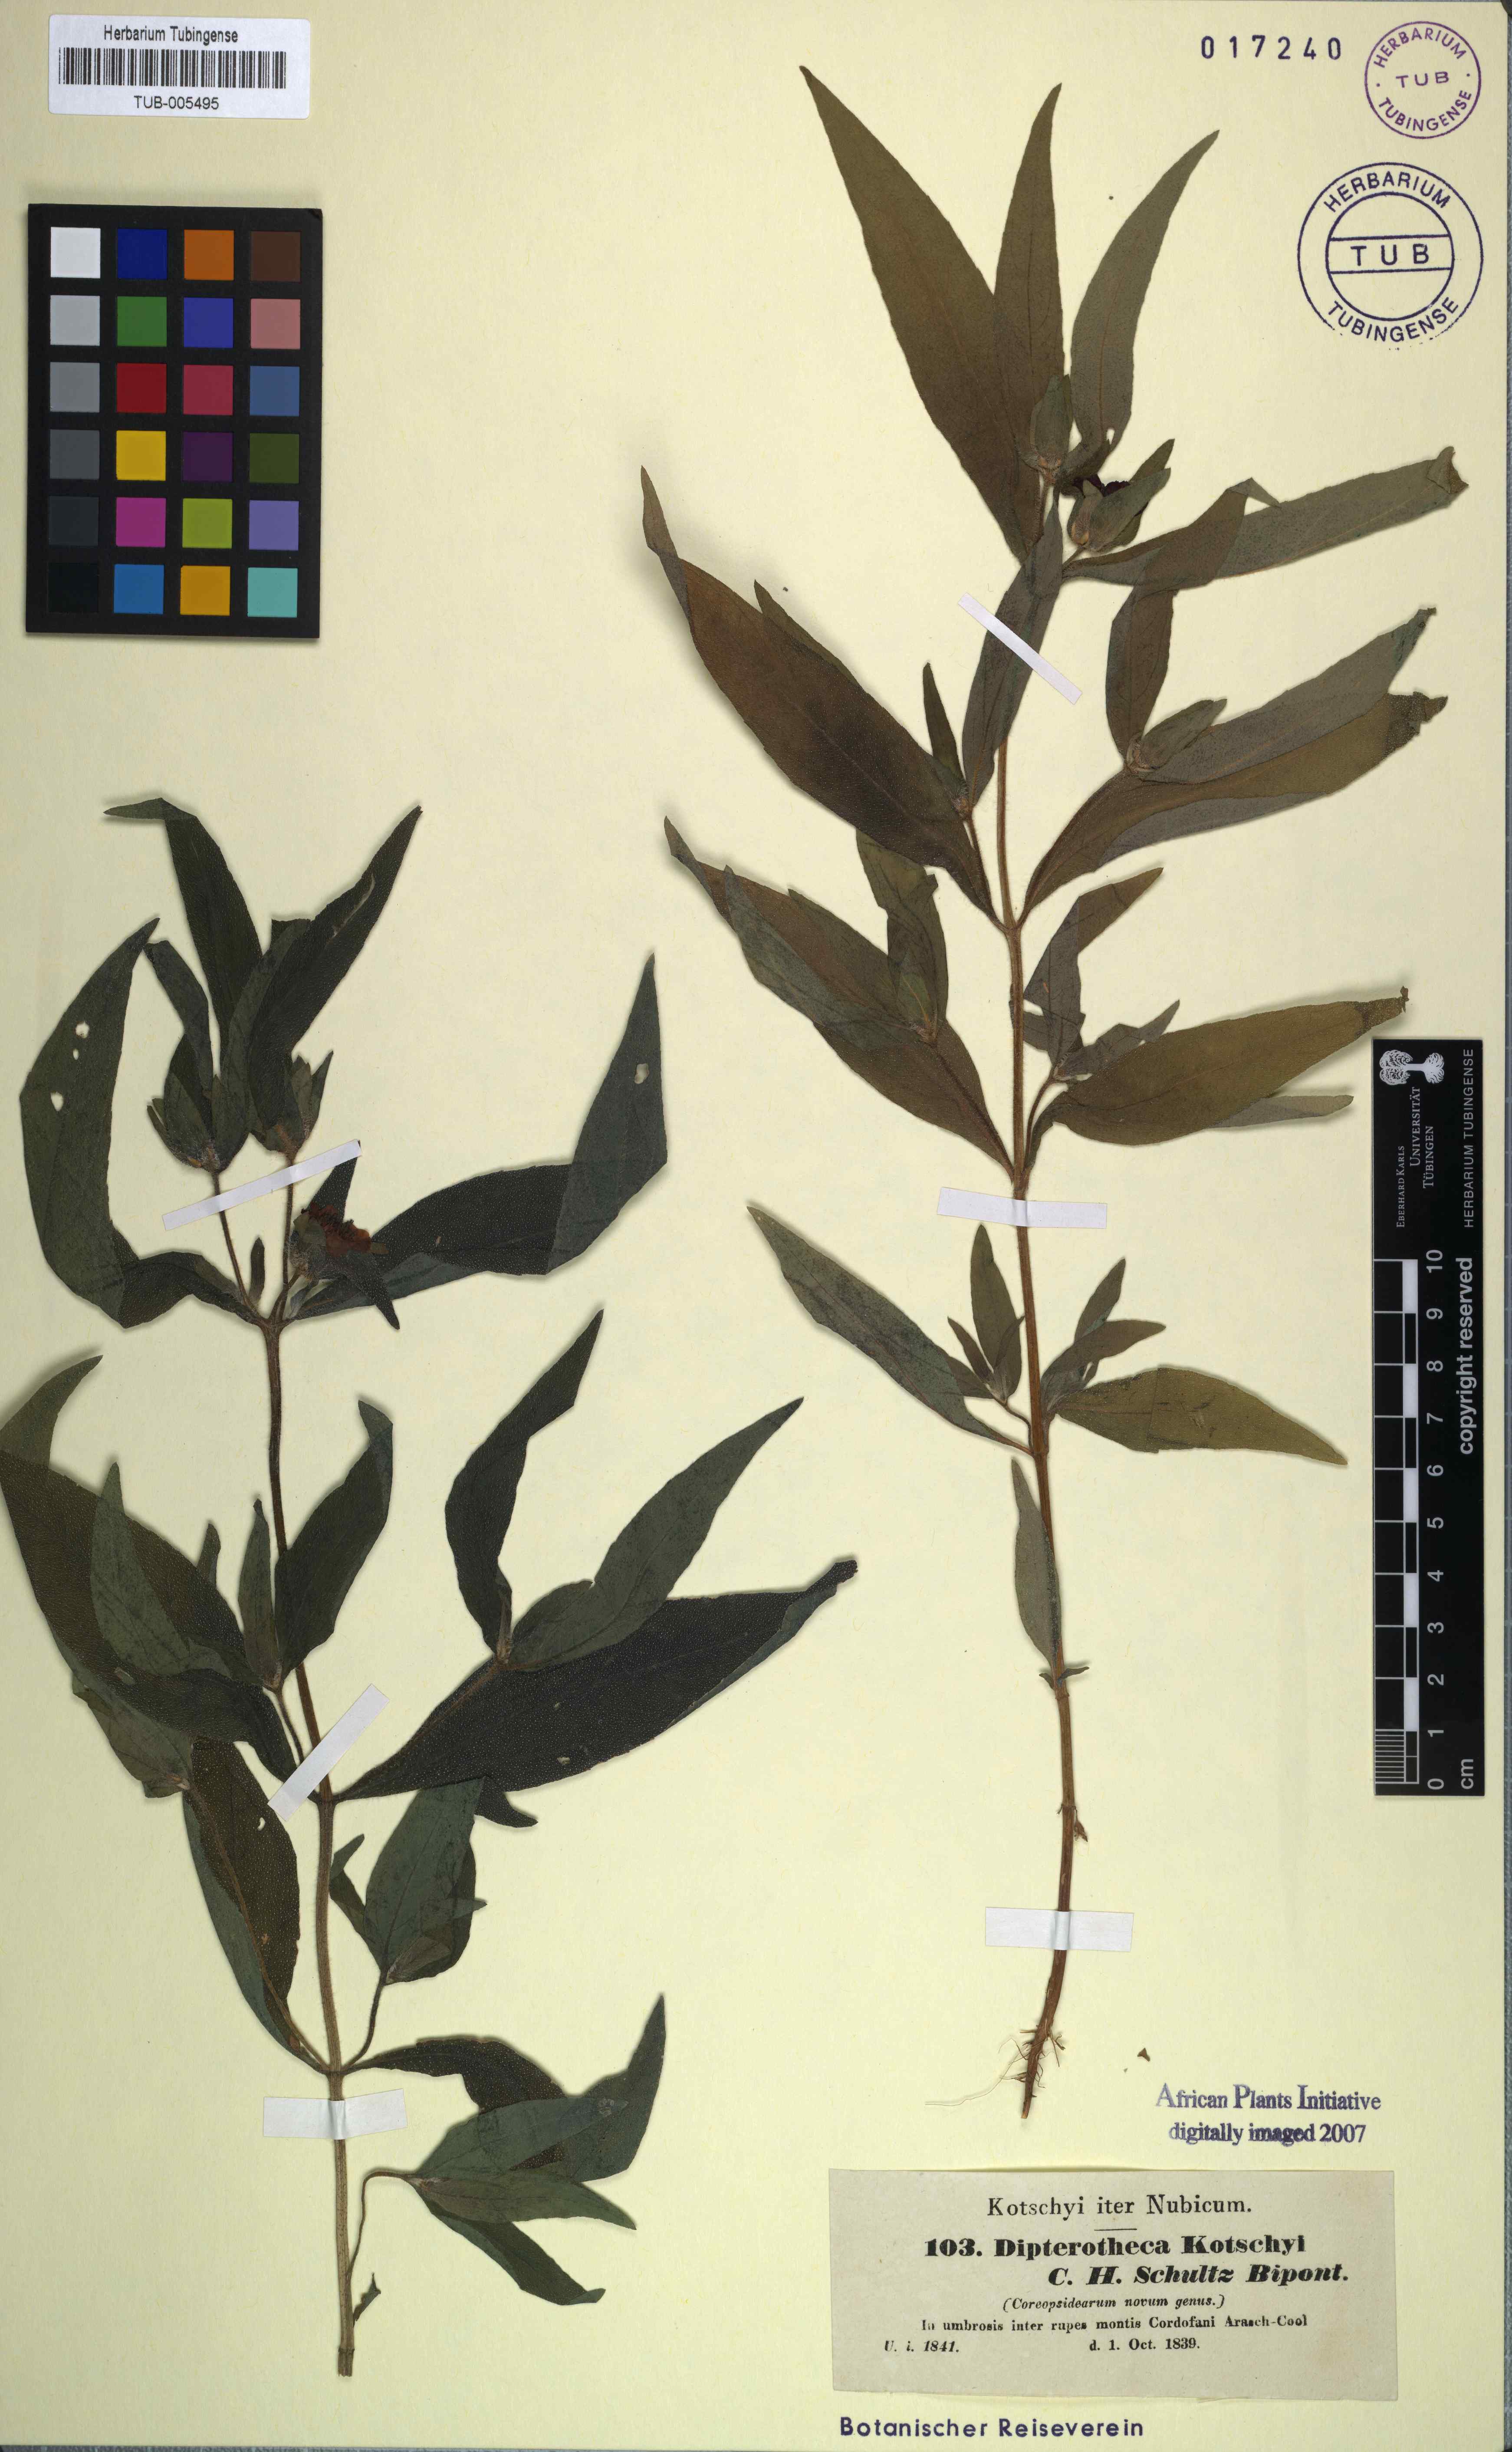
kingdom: Plantae
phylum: Tracheophyta
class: Magnoliopsida
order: Asterales
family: Asteraceae
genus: Aspilia
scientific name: Aspilia kotschyi
